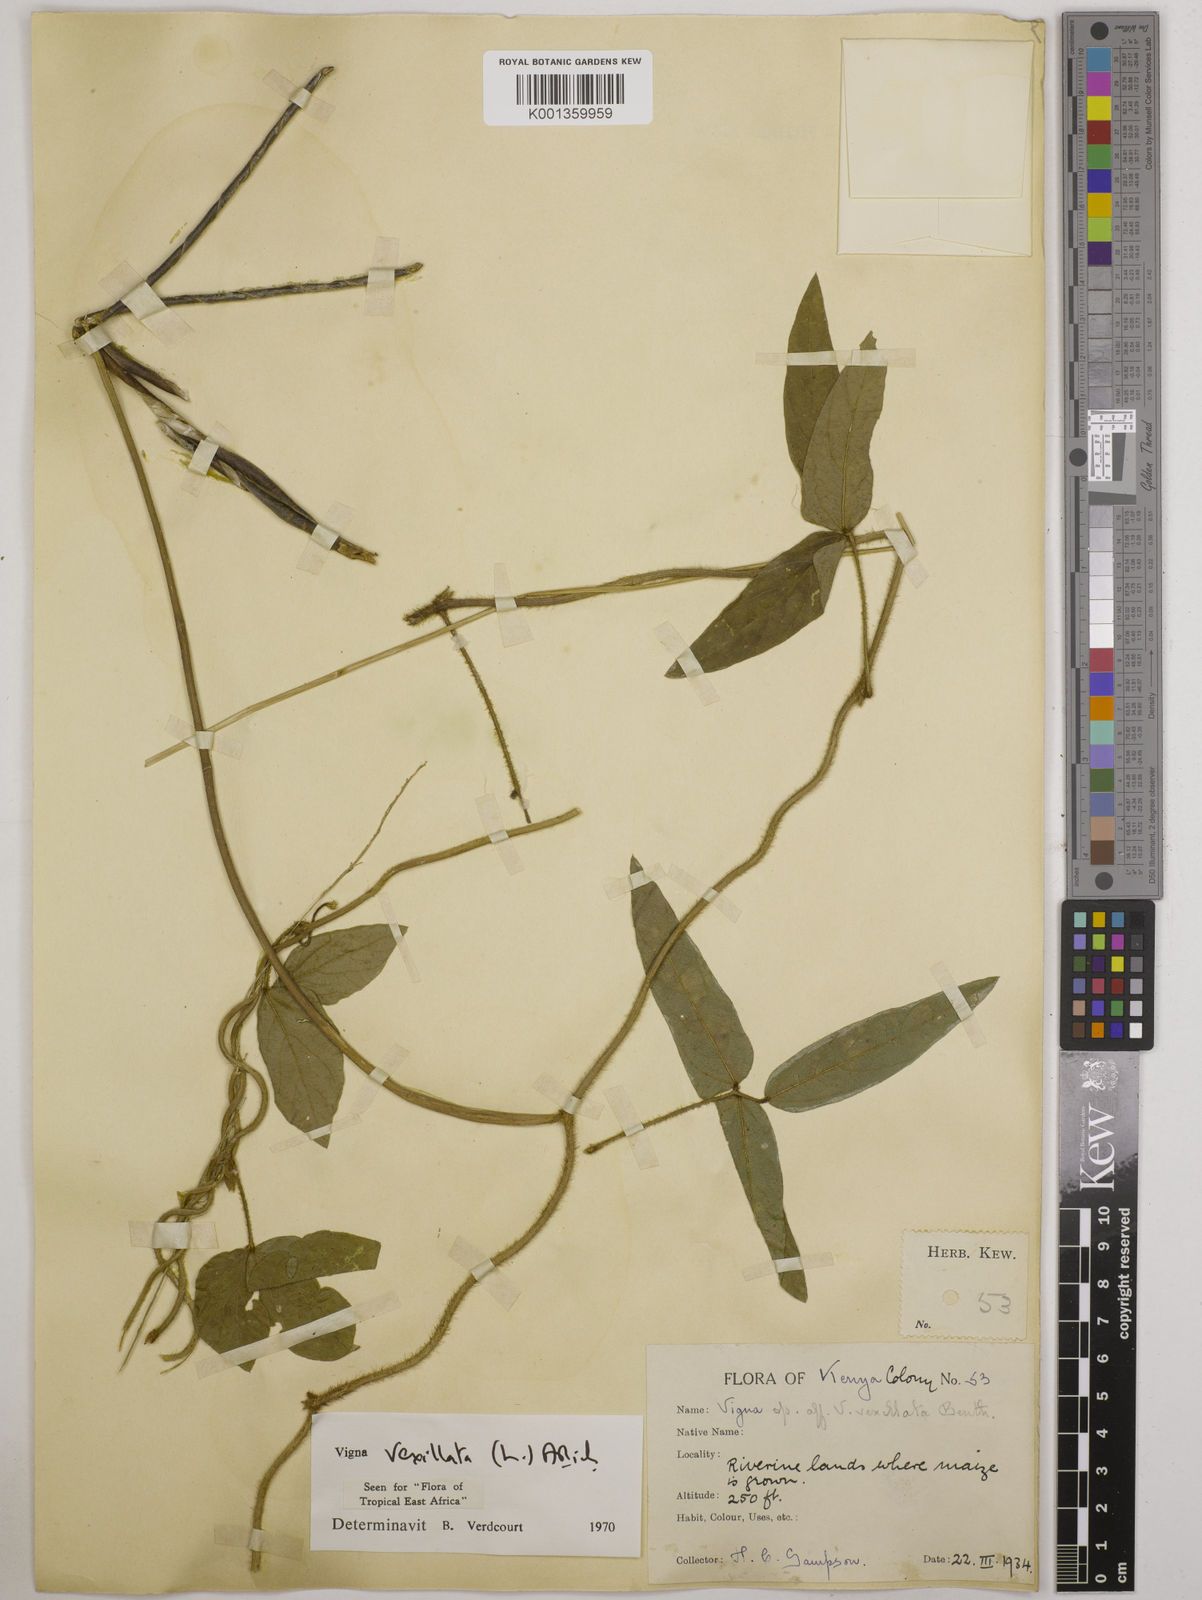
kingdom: Plantae
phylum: Tracheophyta
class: Magnoliopsida
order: Fabales
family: Fabaceae
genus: Vigna
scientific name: Vigna vexillata
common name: Zombi pea
